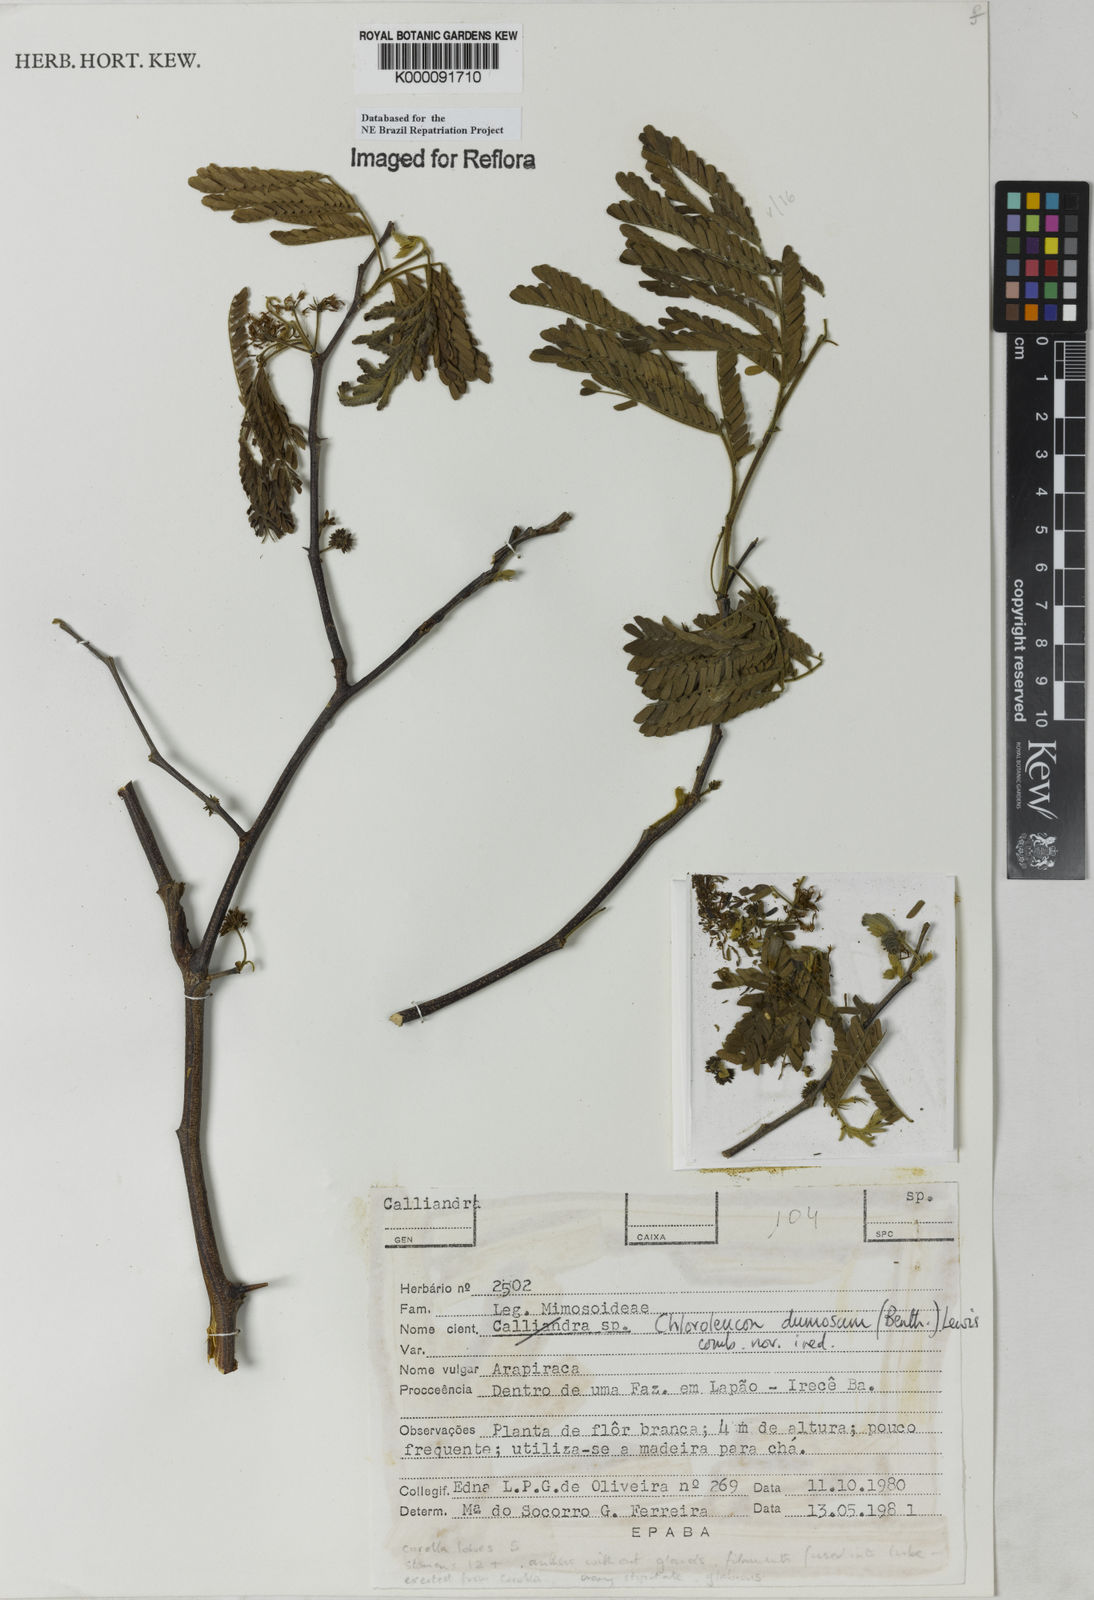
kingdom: Plantae
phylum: Tracheophyta
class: Magnoliopsida
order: Fabales
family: Fabaceae
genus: Chloroleucon
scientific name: Chloroleucon dumosum
